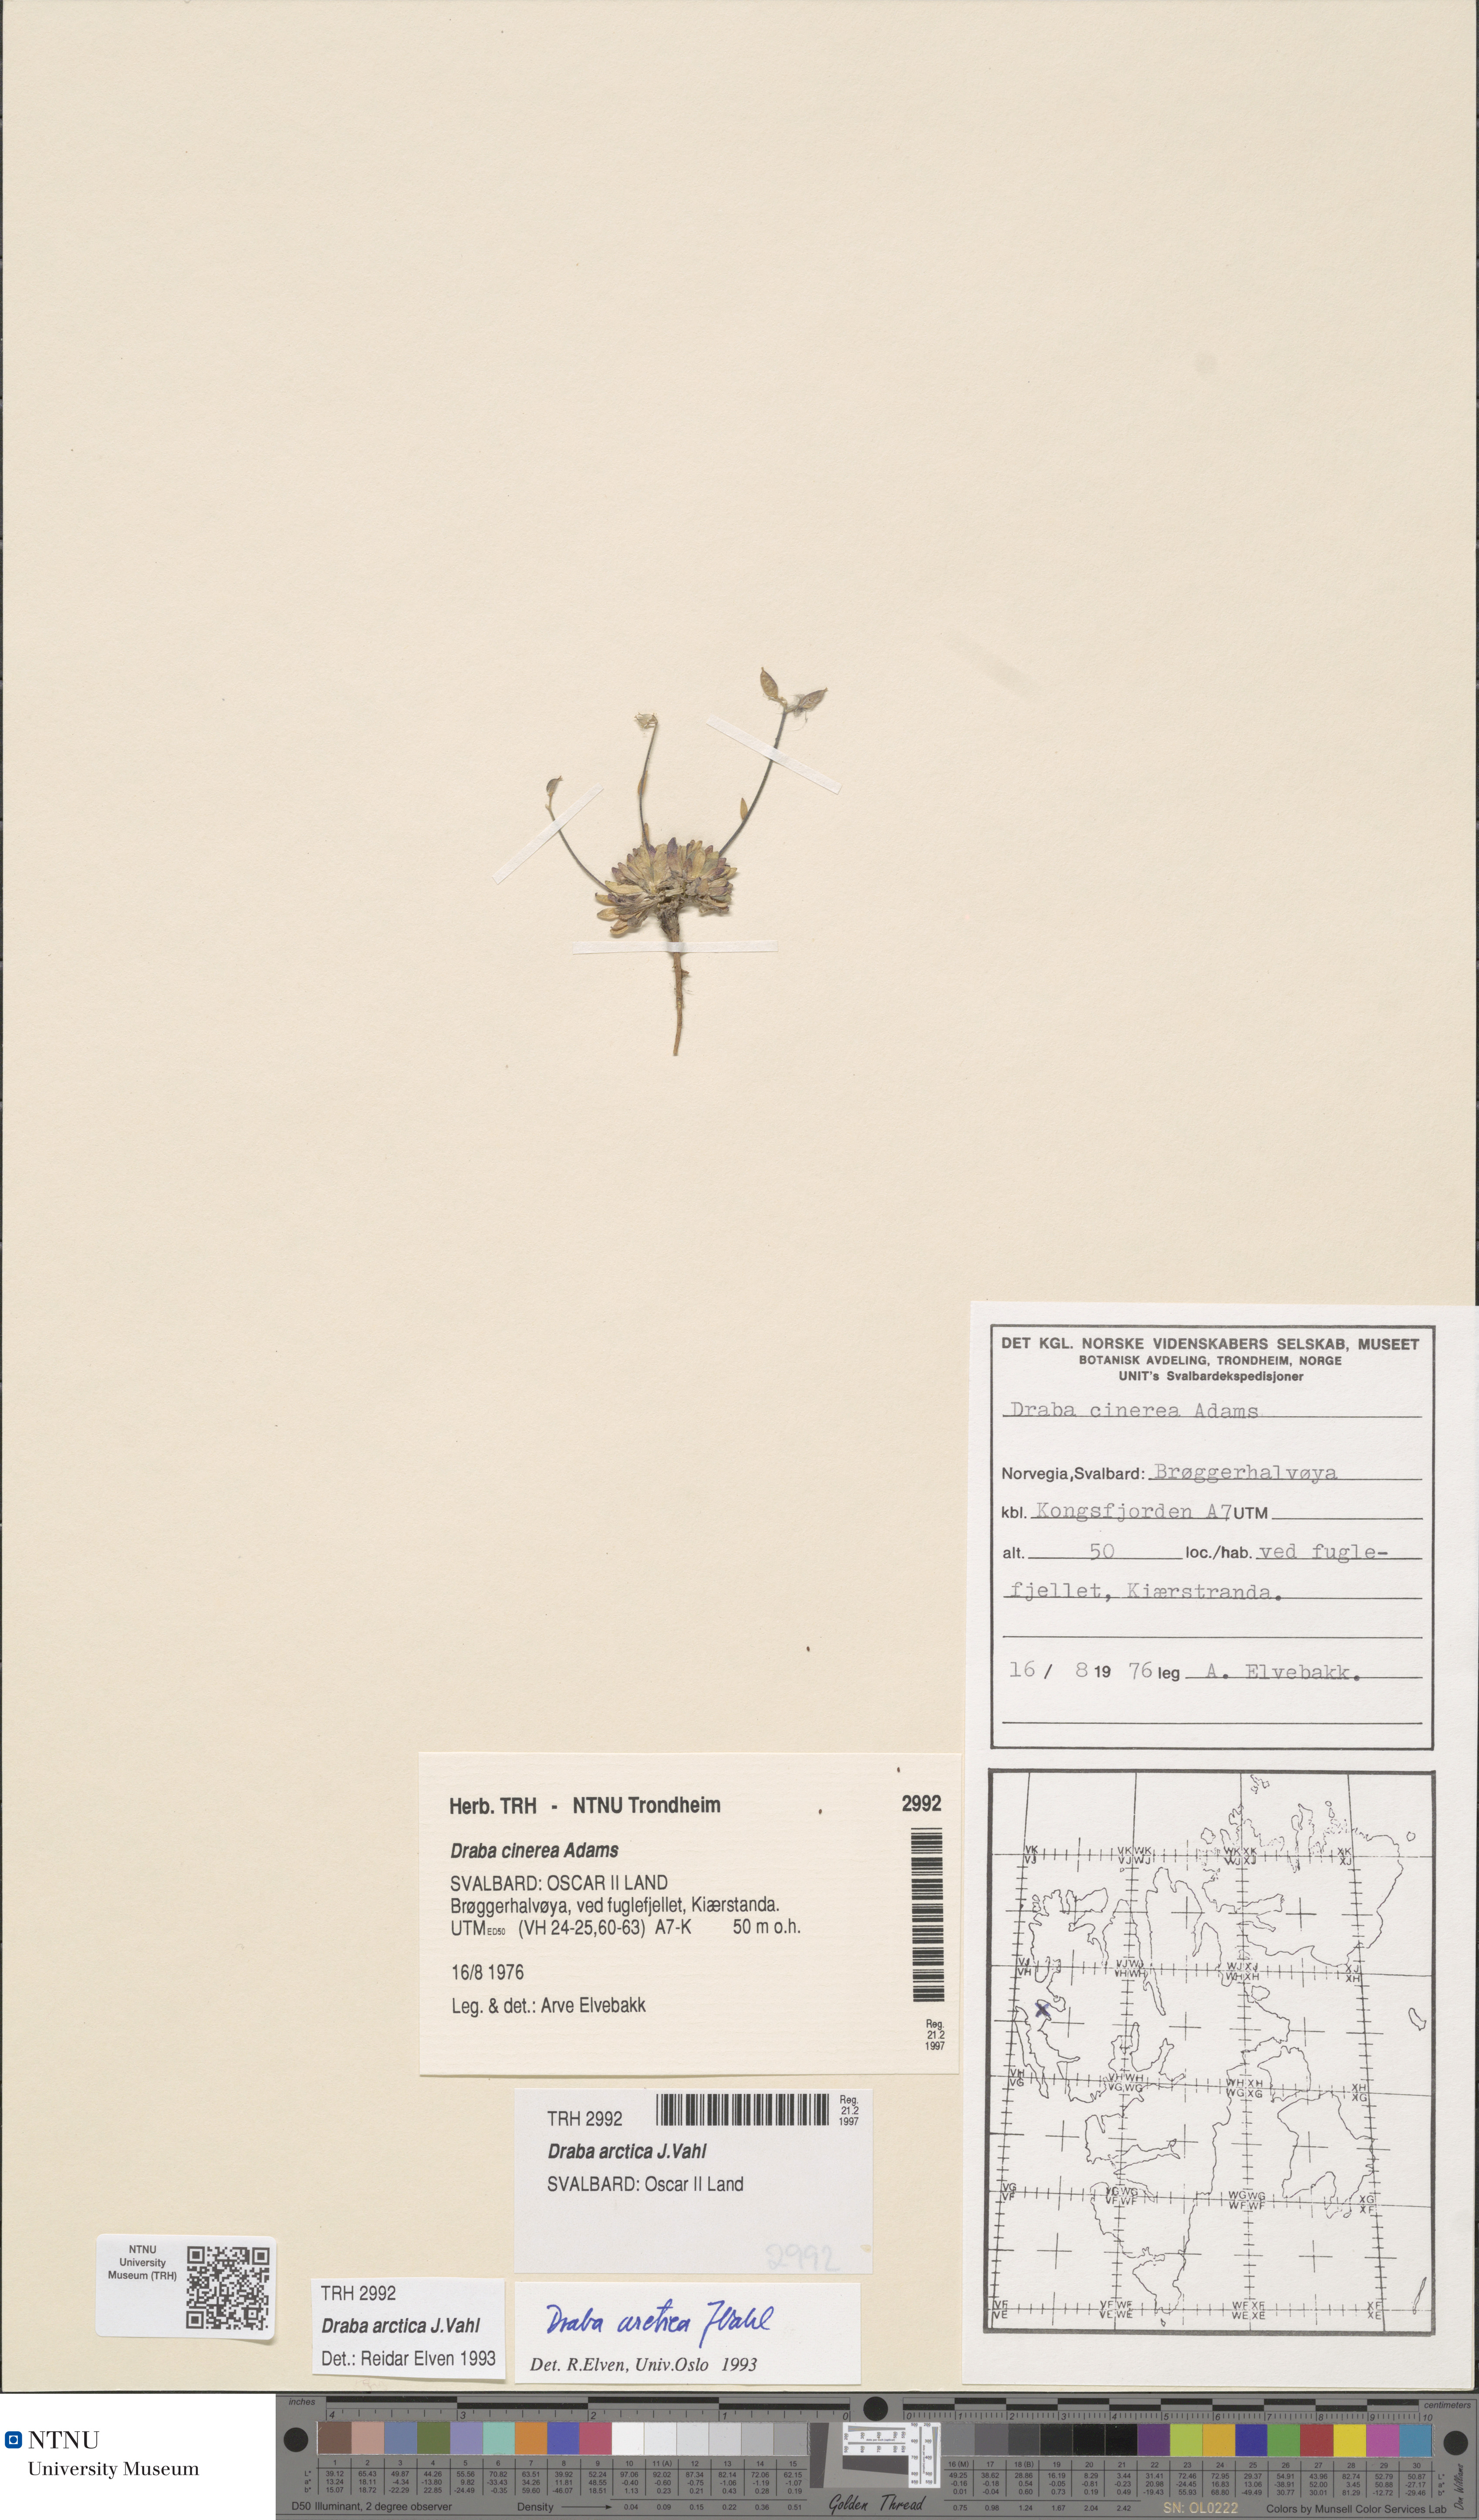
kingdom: Plantae
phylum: Tracheophyta
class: Magnoliopsida
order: Brassicales
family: Brassicaceae
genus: Draba
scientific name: Draba arctica
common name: Arctic draba
